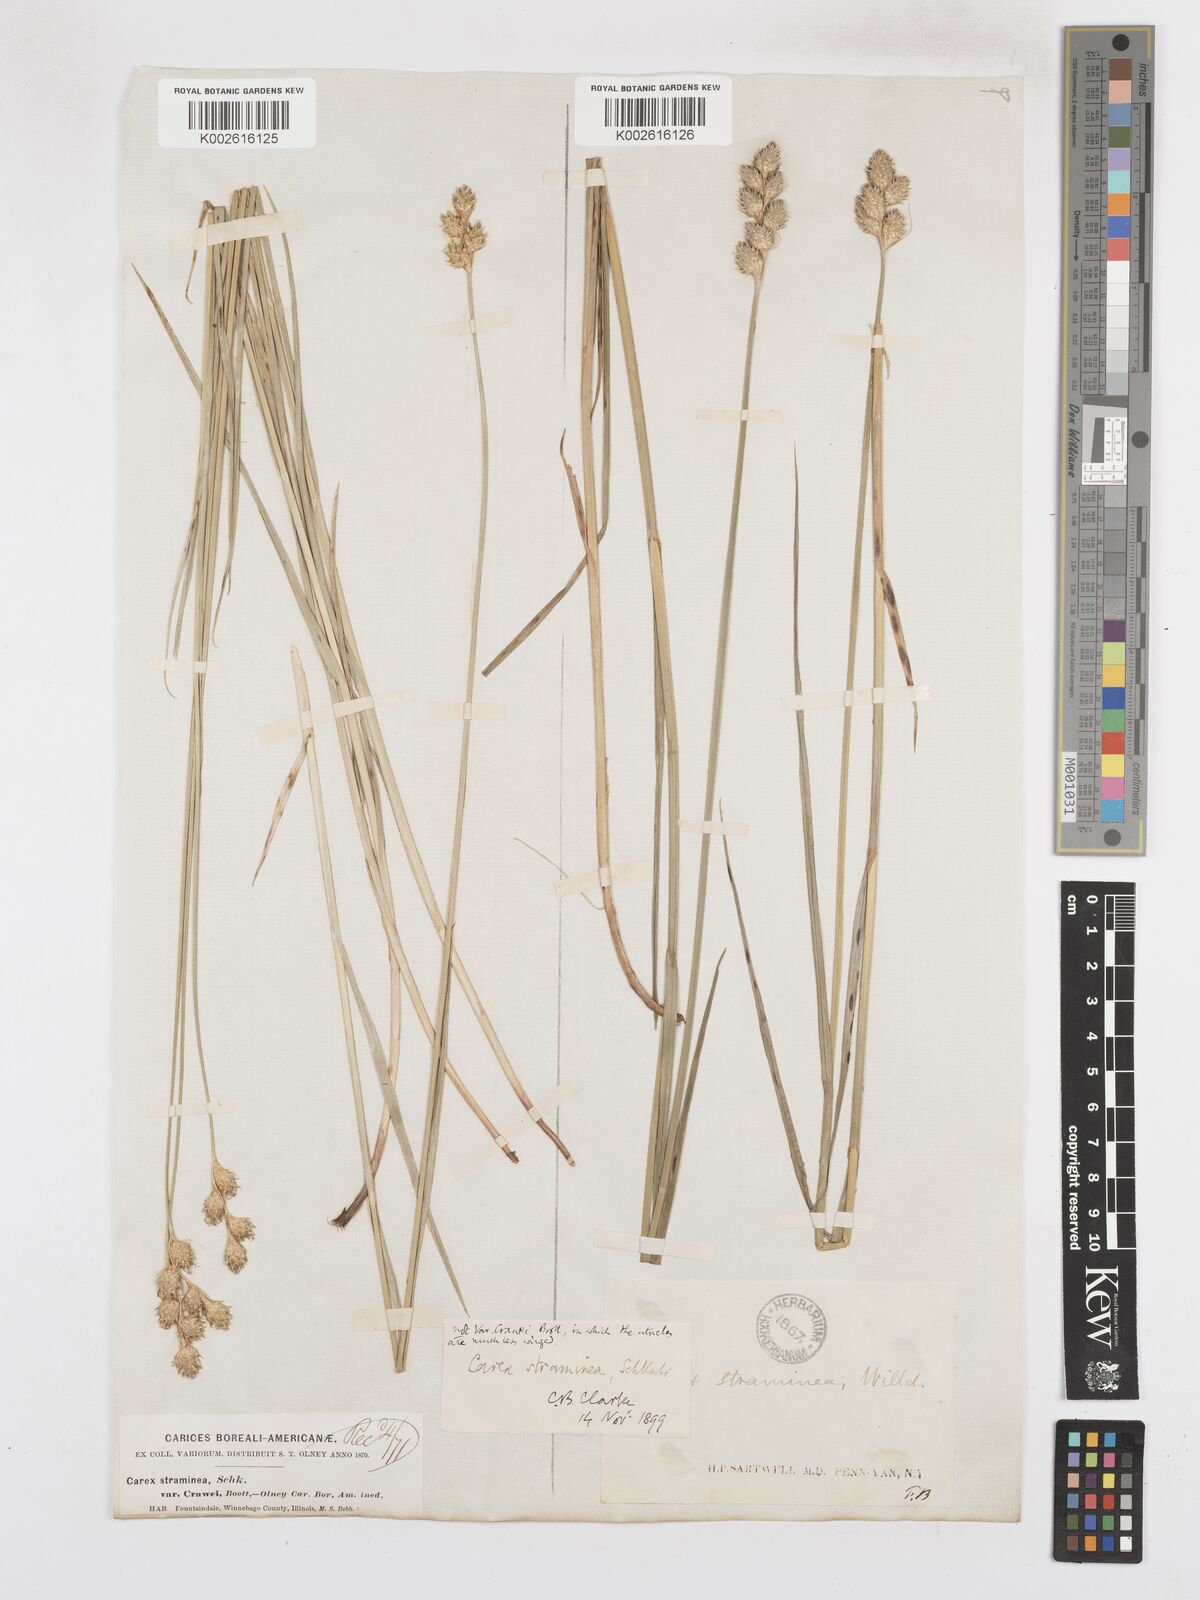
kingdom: Plantae
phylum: Tracheophyta
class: Liliopsida
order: Poales
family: Cyperaceae
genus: Carex
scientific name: Carex brevior
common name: Brevior sedge
